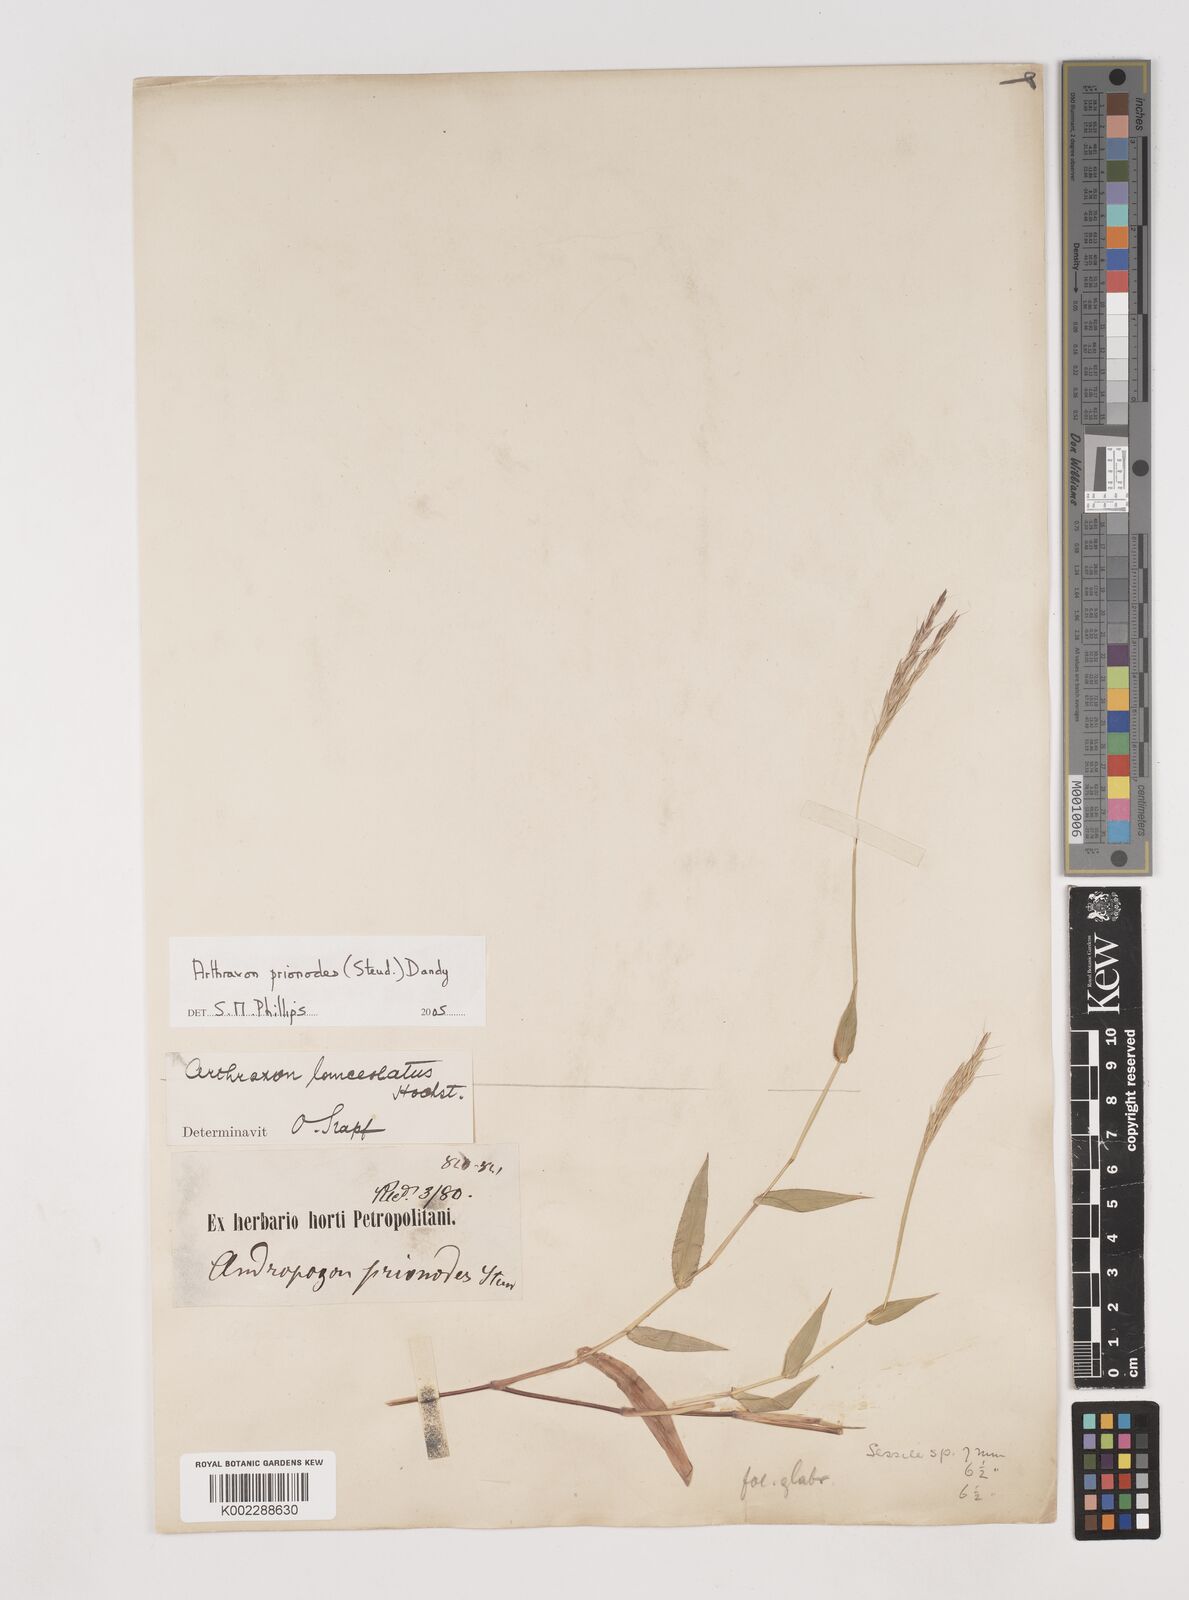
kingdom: Plantae
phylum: Tracheophyta
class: Liliopsida
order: Poales
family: Poaceae
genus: Arthraxon
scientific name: Arthraxon prionodes
